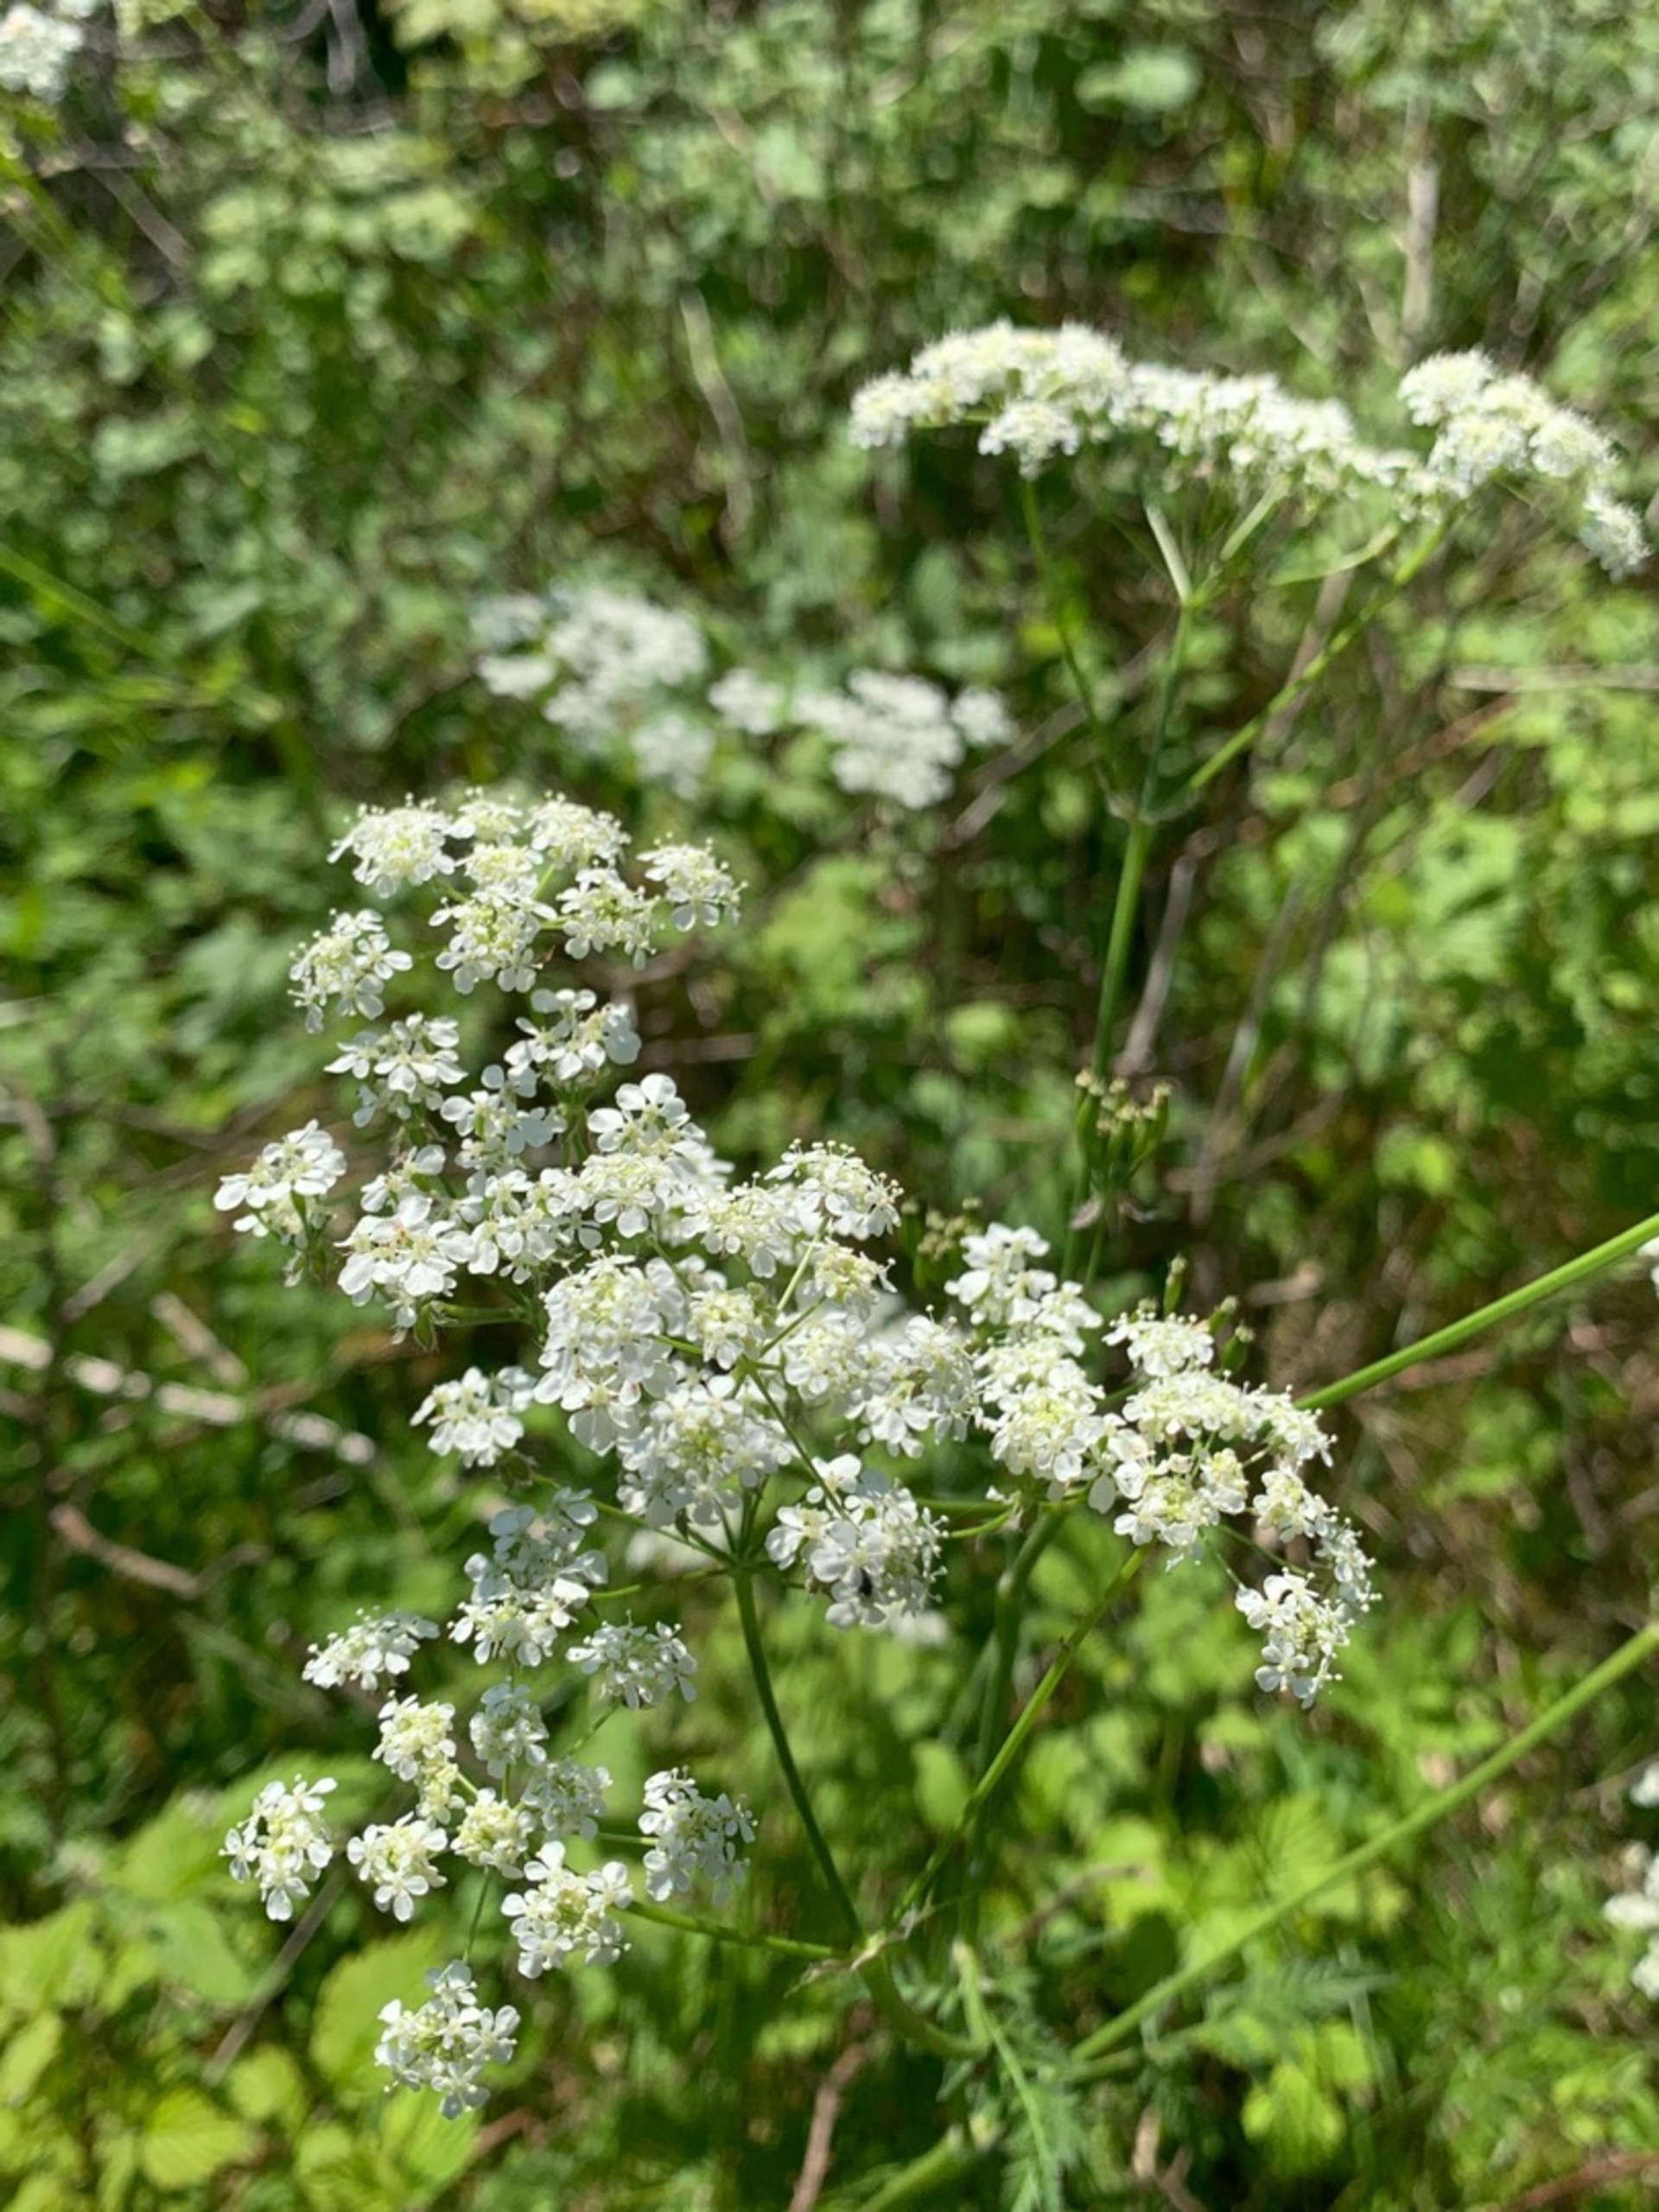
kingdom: Plantae
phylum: Tracheophyta
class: Magnoliopsida
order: Apiales
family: Apiaceae
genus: Anthriscus
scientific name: Anthriscus sylvestris
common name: Vild kørvel
